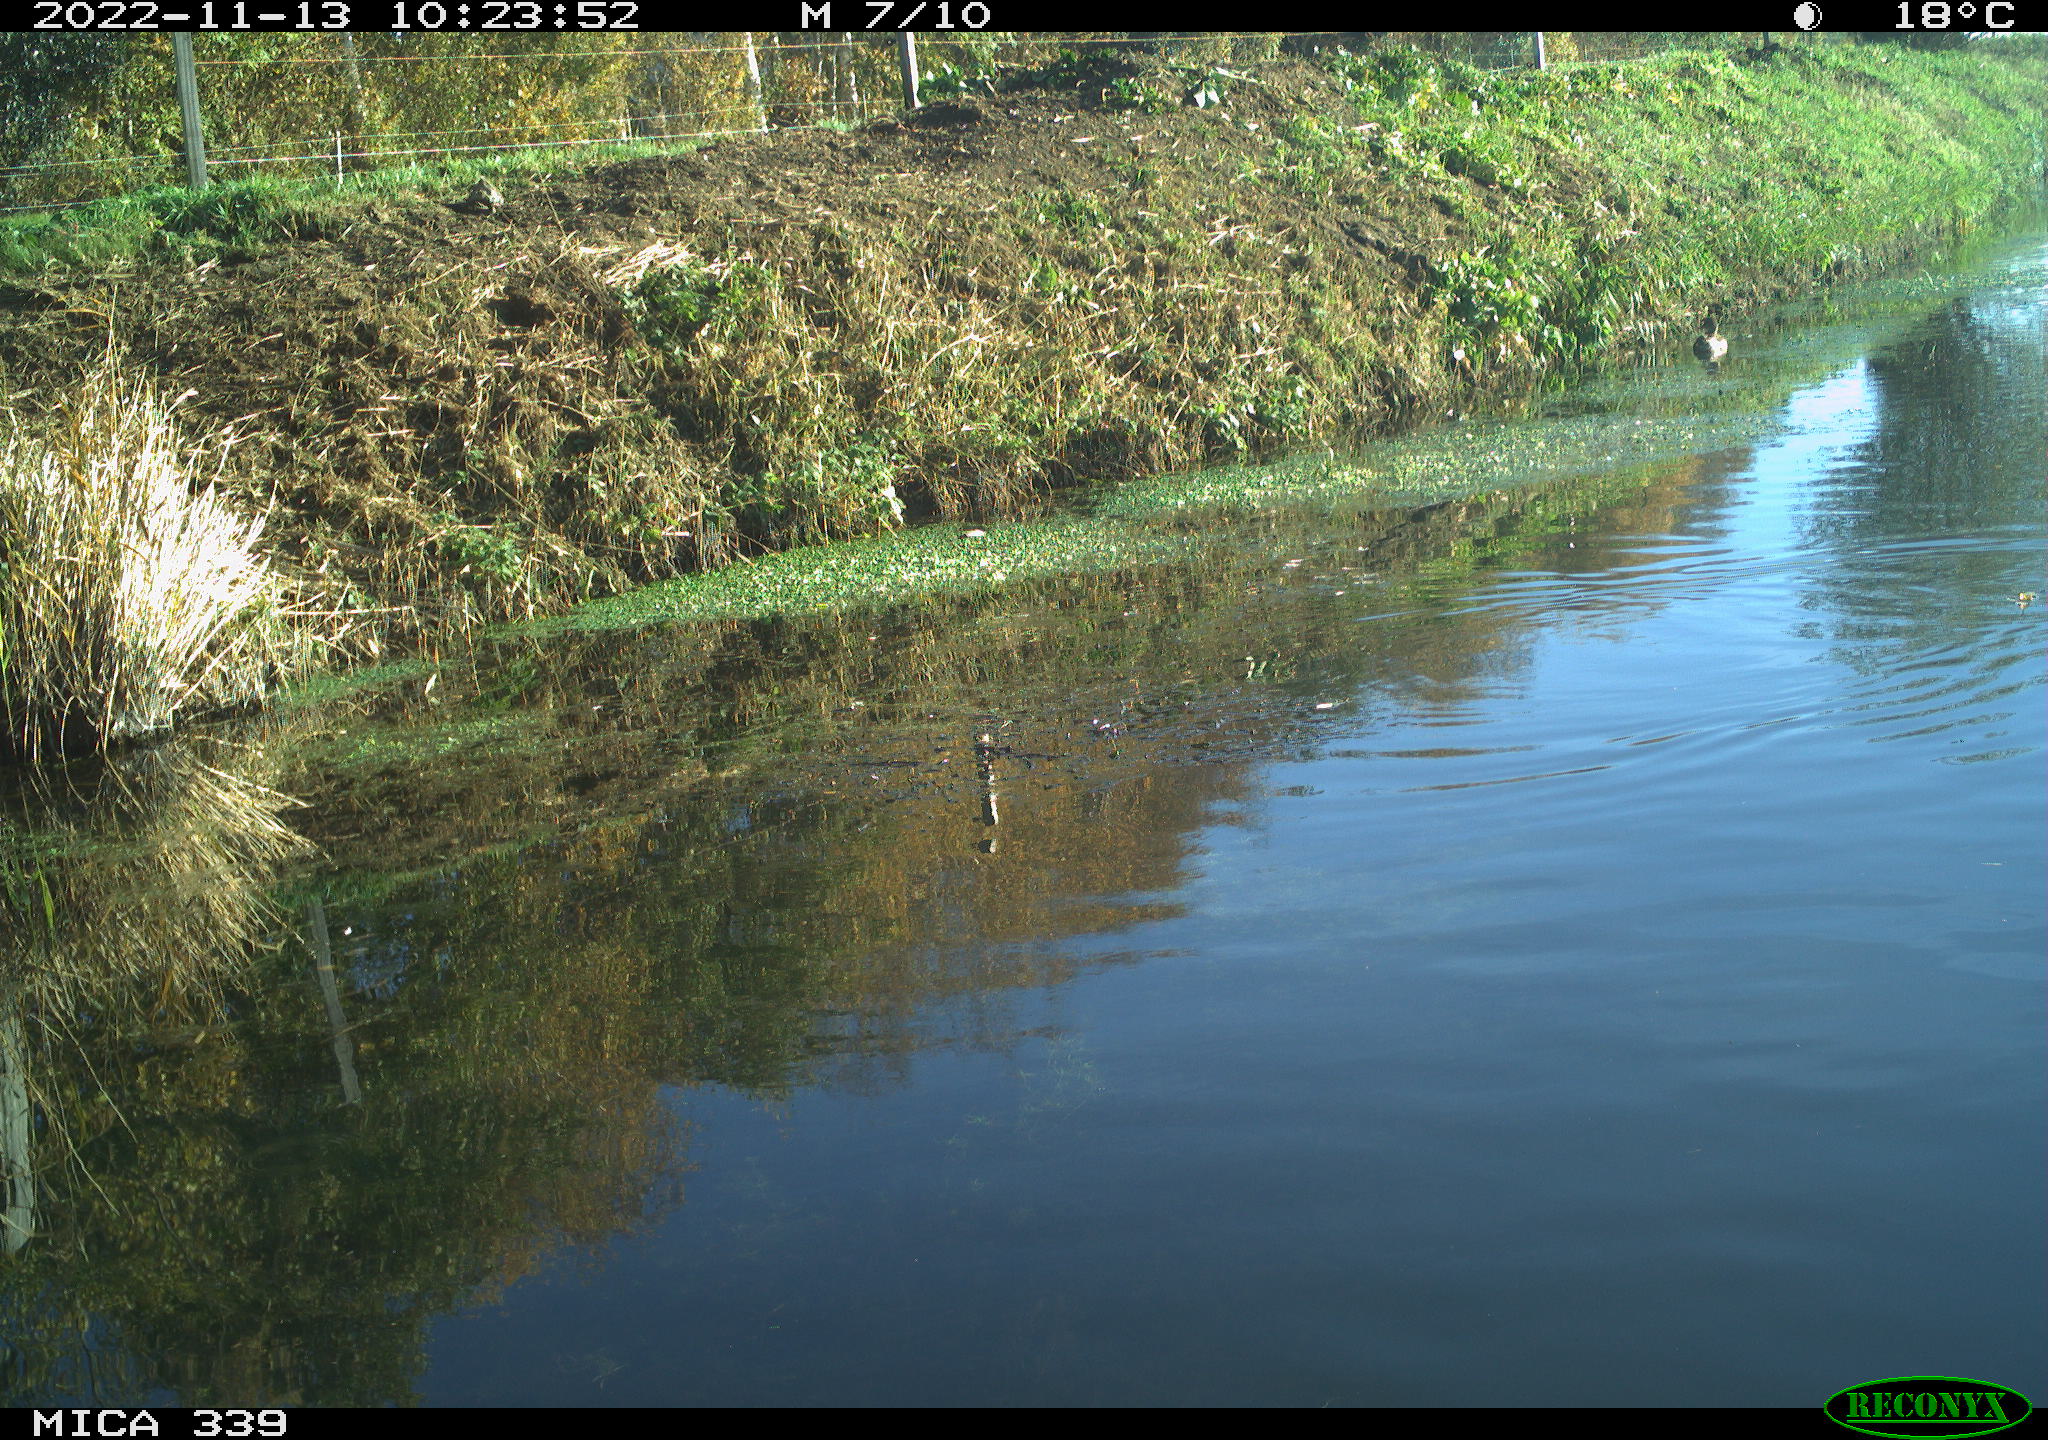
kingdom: Animalia
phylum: Chordata
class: Aves
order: Anseriformes
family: Anatidae
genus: Anas
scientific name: Anas platyrhynchos
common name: Mallard
